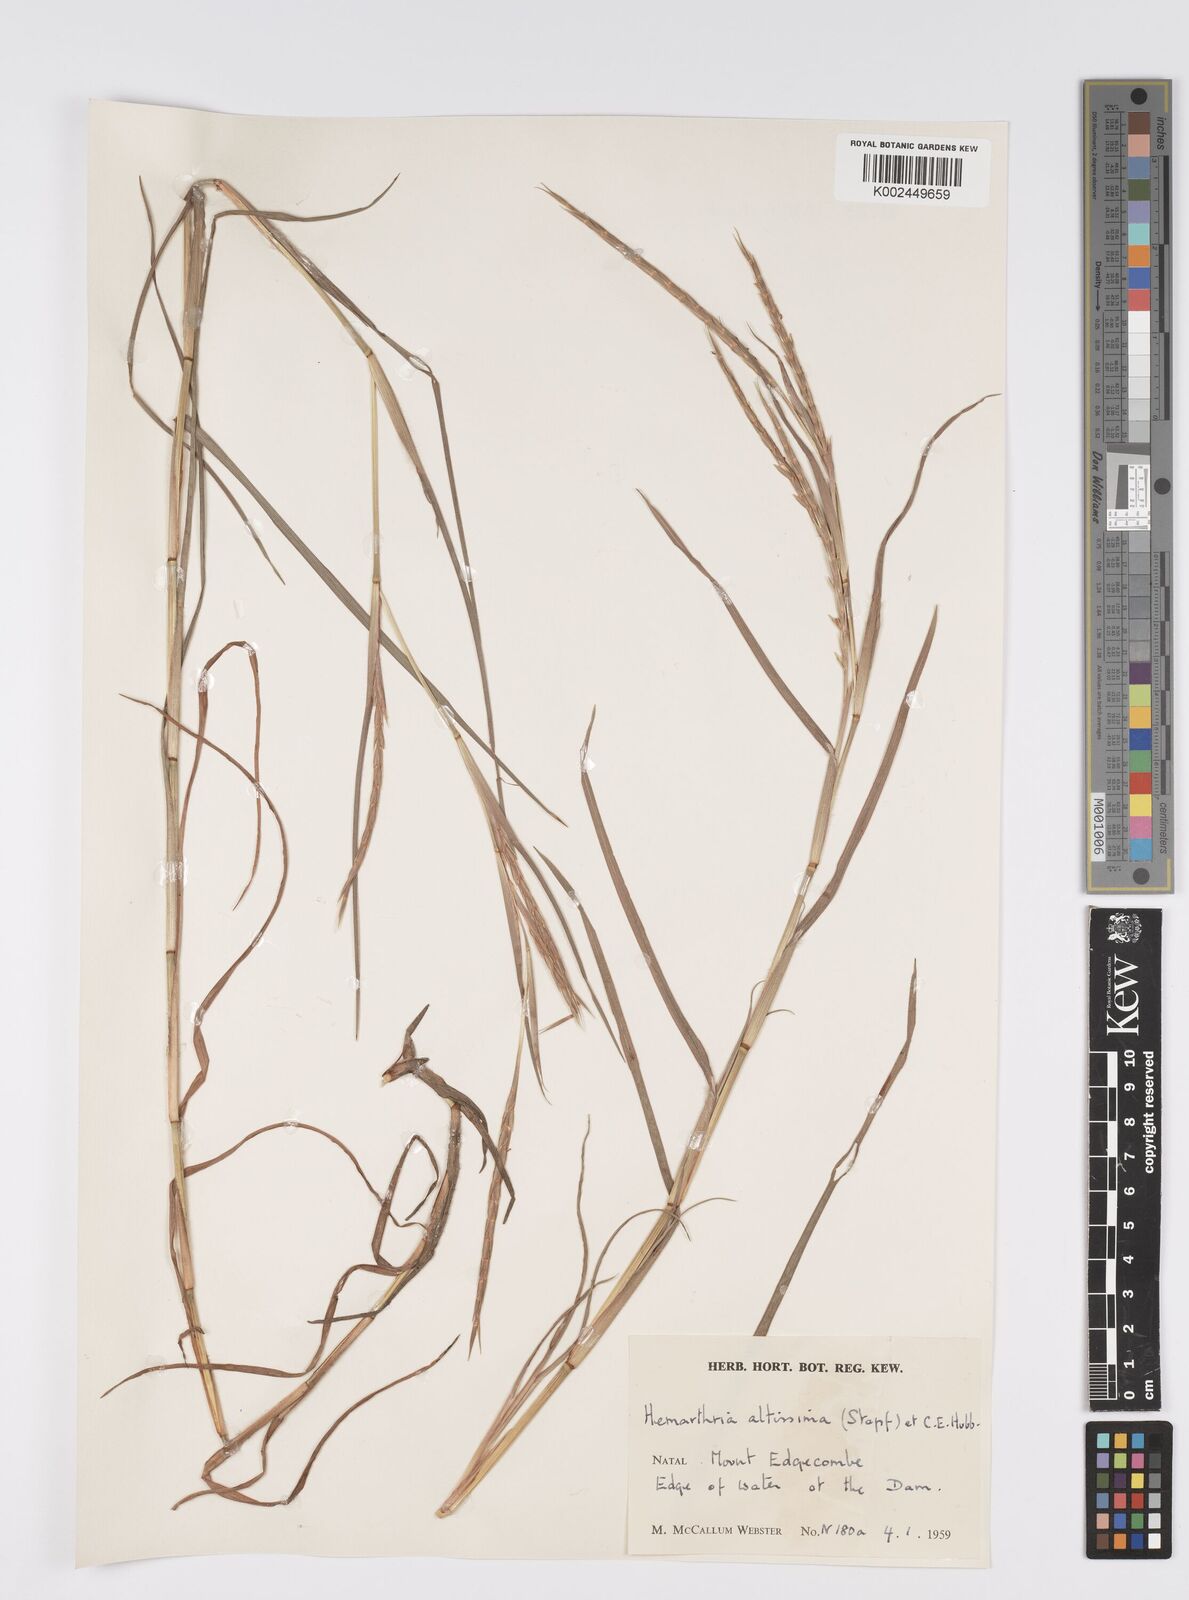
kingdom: Plantae
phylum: Tracheophyta
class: Liliopsida
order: Poales
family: Poaceae
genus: Hemarthria
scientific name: Hemarthria altissima
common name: African jointgrass
